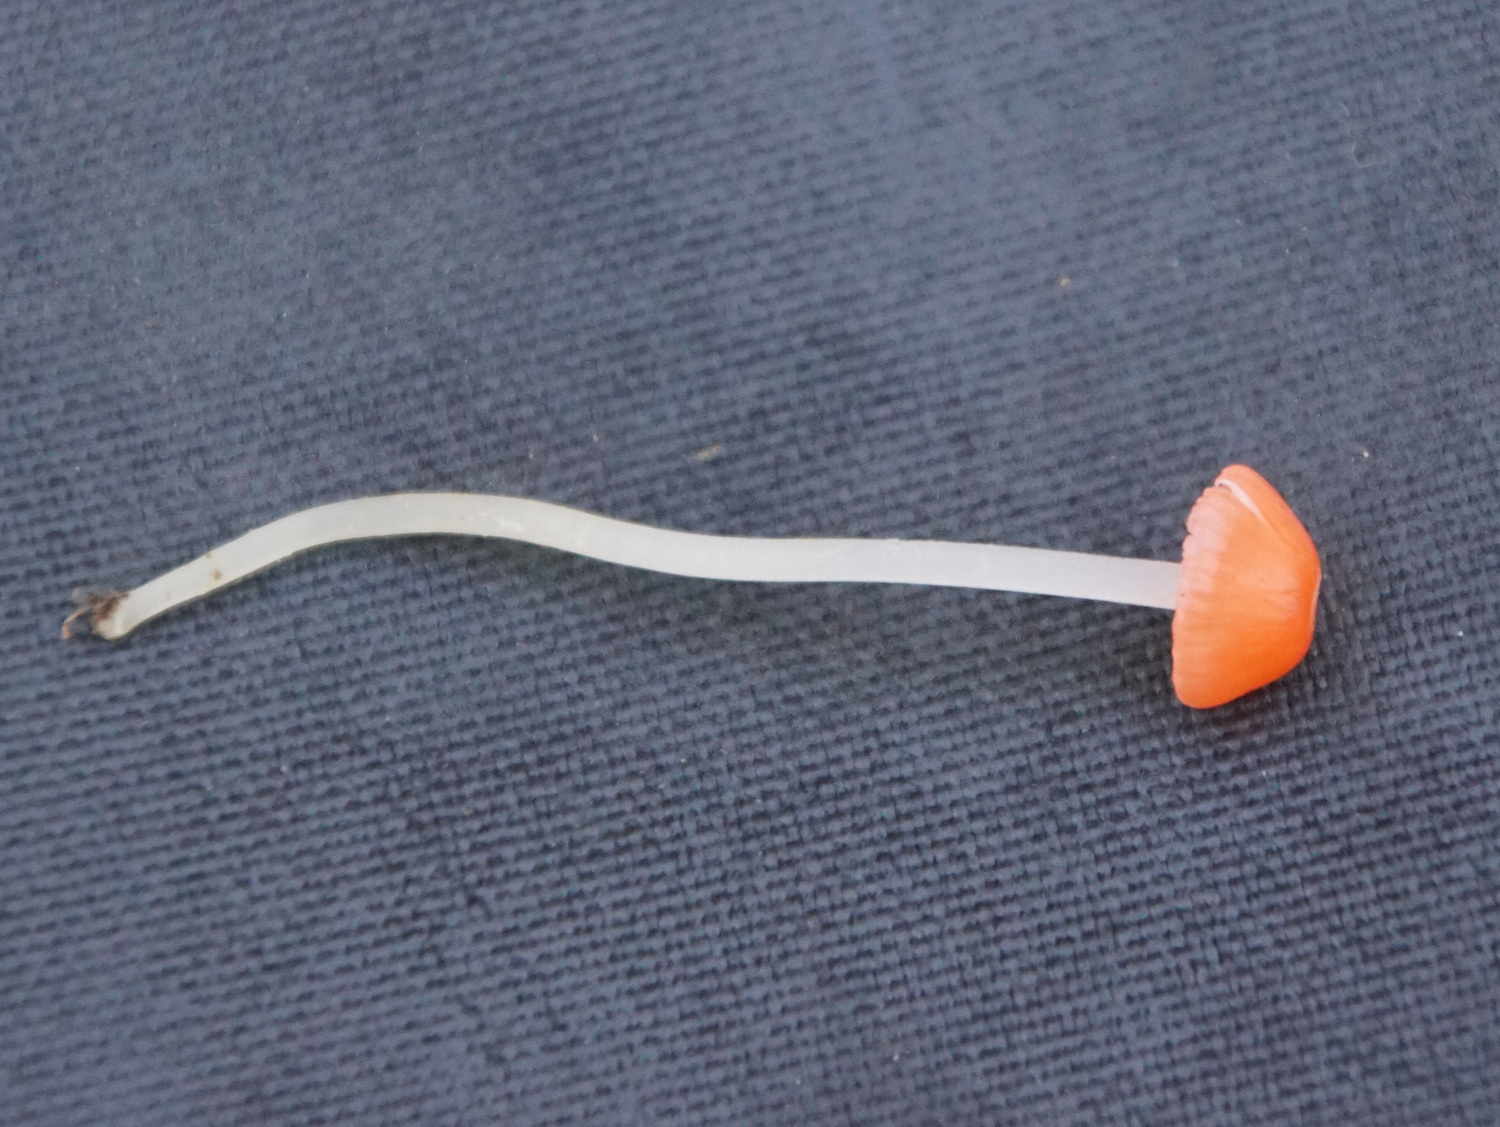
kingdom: Fungi
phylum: Basidiomycota
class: Agaricomycetes
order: Agaricales
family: Mycenaceae
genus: Atheniella
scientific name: Atheniella adonis
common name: rønnerød huesvamp
